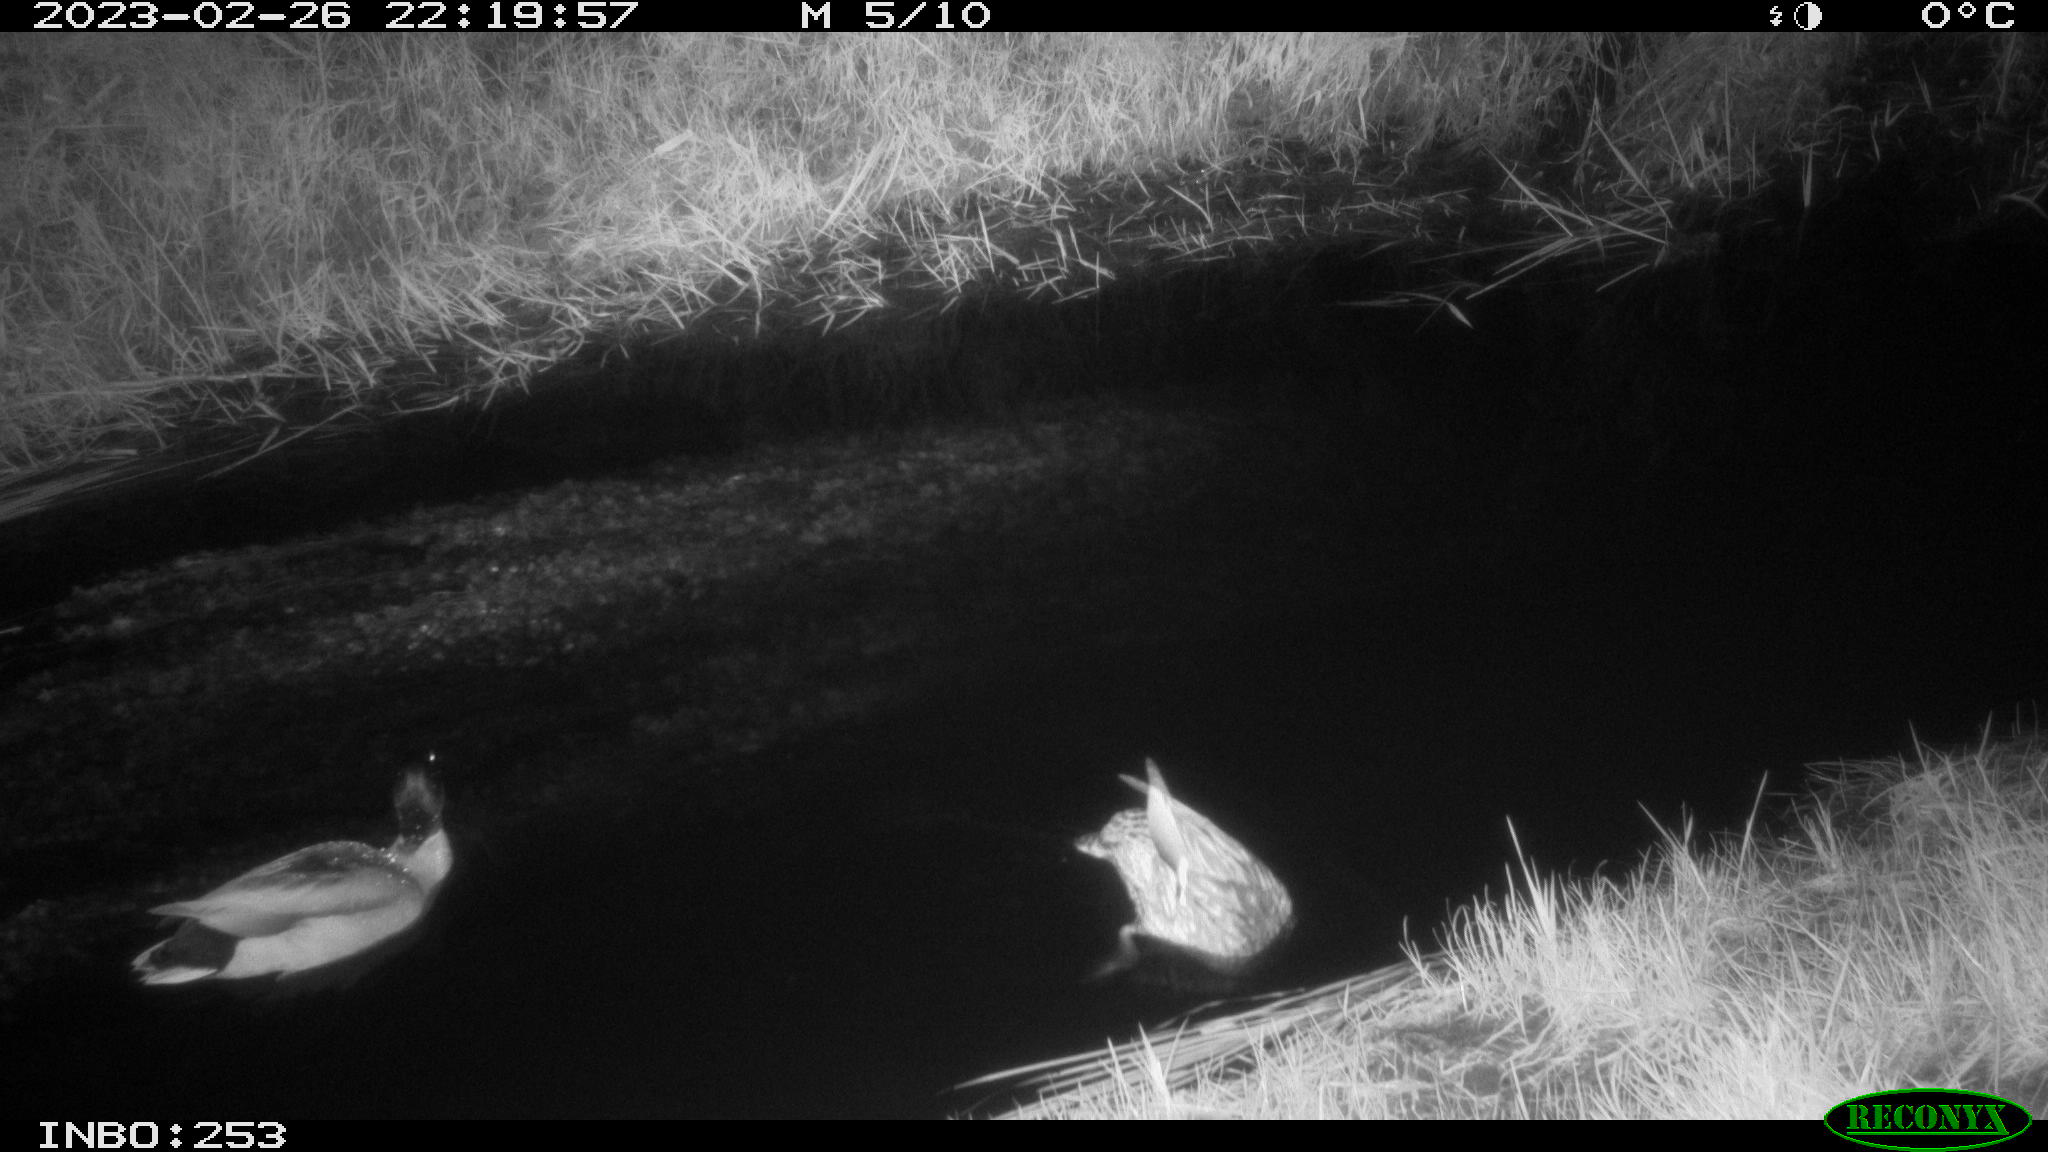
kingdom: Animalia
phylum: Chordata
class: Aves
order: Anseriformes
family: Anatidae
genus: Anas
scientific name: Anas
